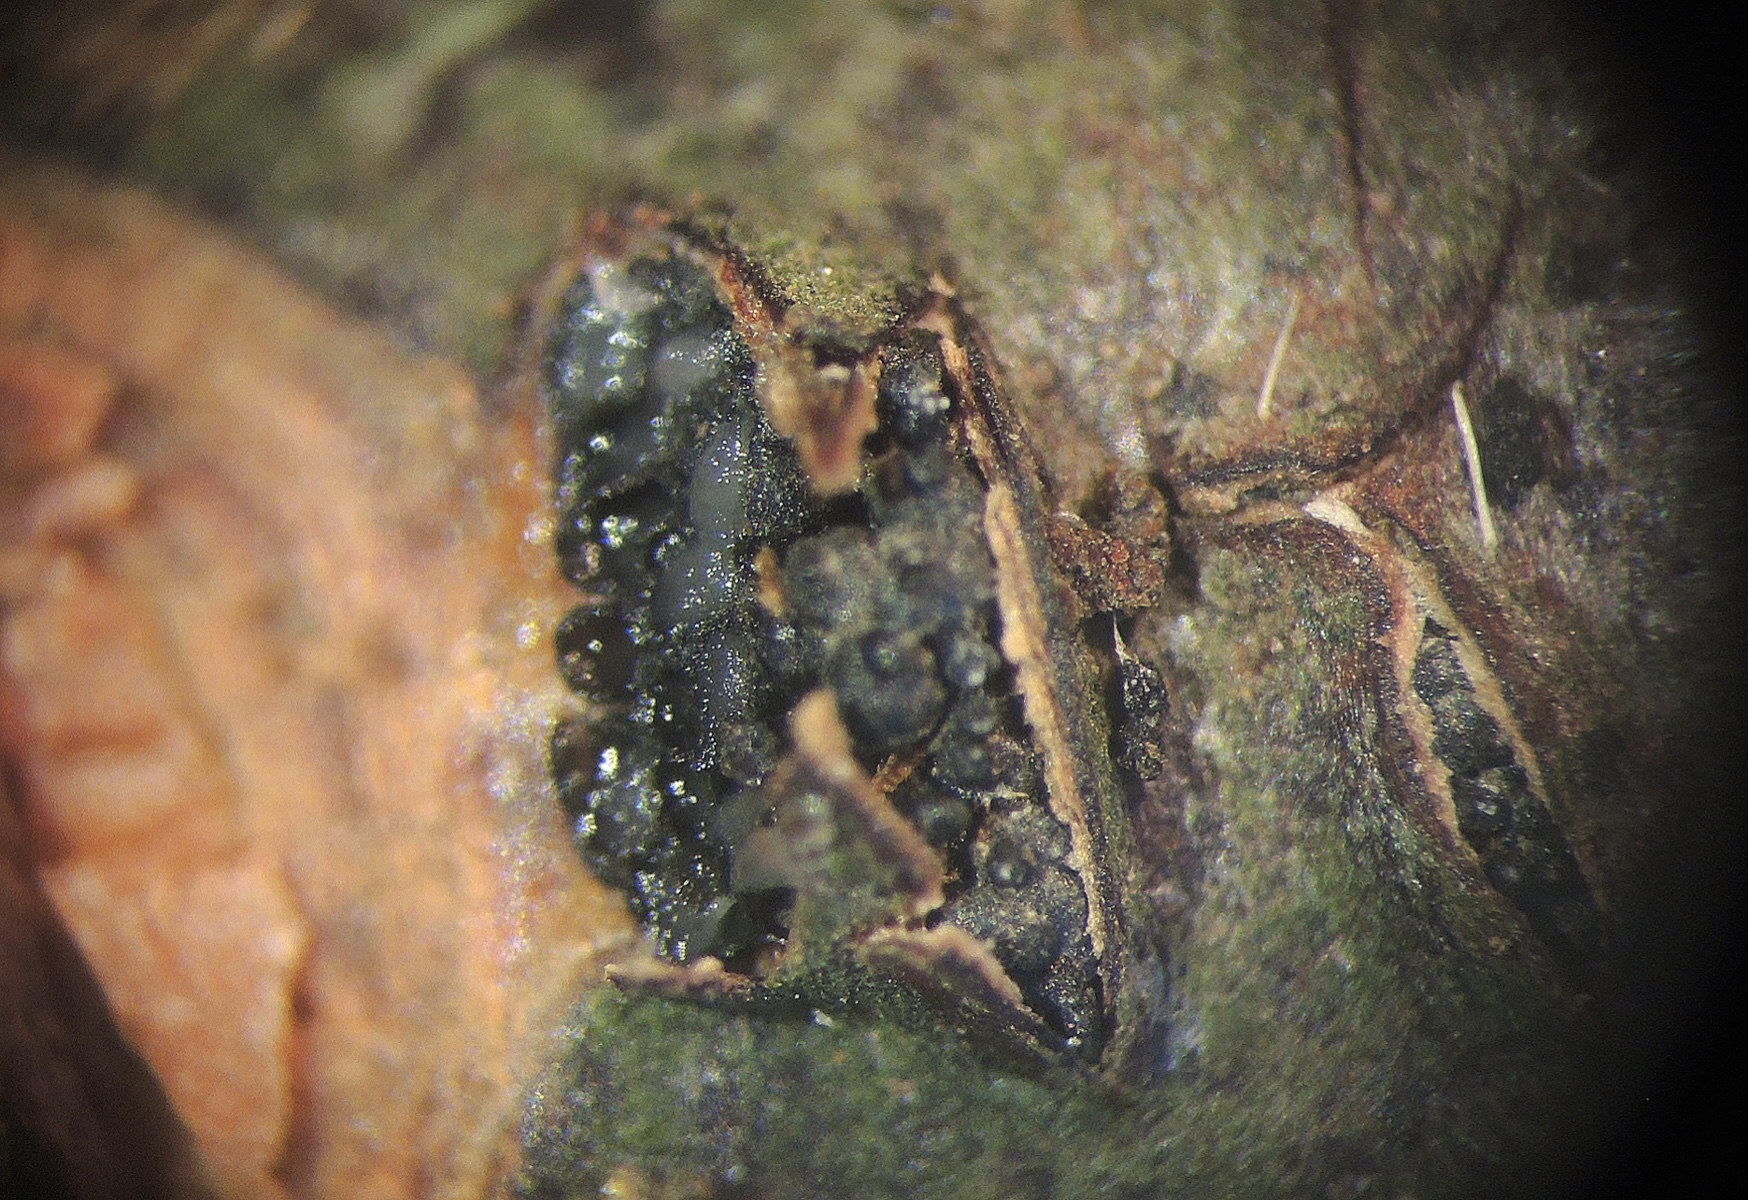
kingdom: Fungi
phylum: Ascomycota
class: Sordariomycetes
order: Amphisphaeriales
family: Amphisphaeriaceae
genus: Ceriospora
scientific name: Ceriospora ribis
